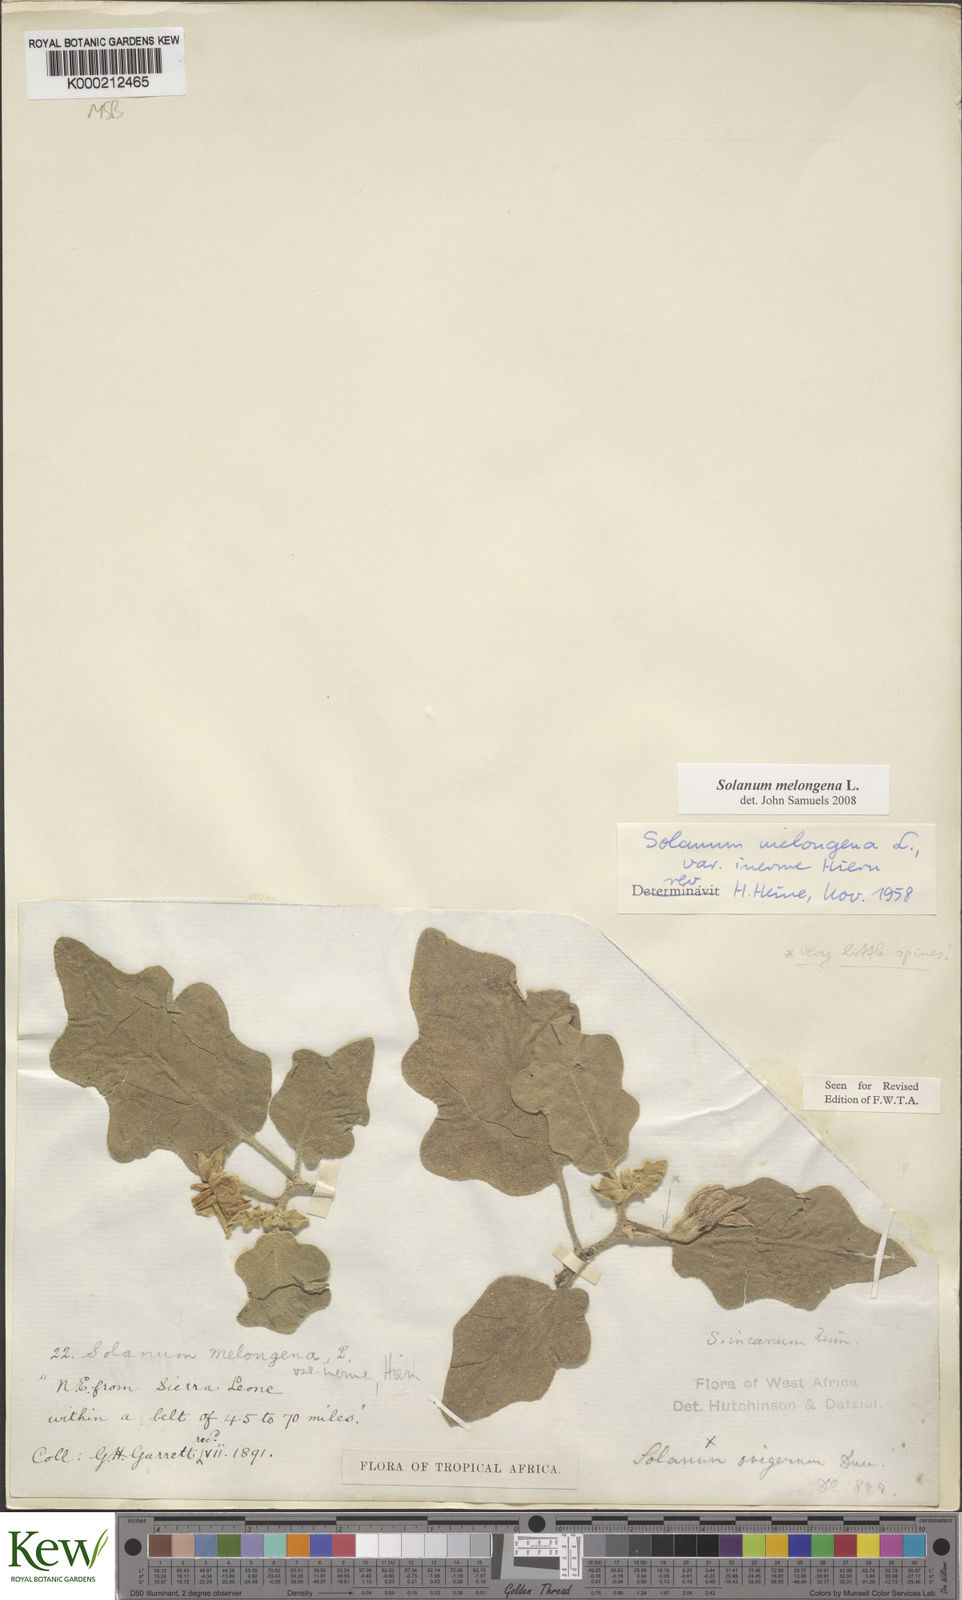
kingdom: Plantae
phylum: Tracheophyta
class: Magnoliopsida
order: Solanales
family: Solanaceae
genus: Solanum
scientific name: Solanum
